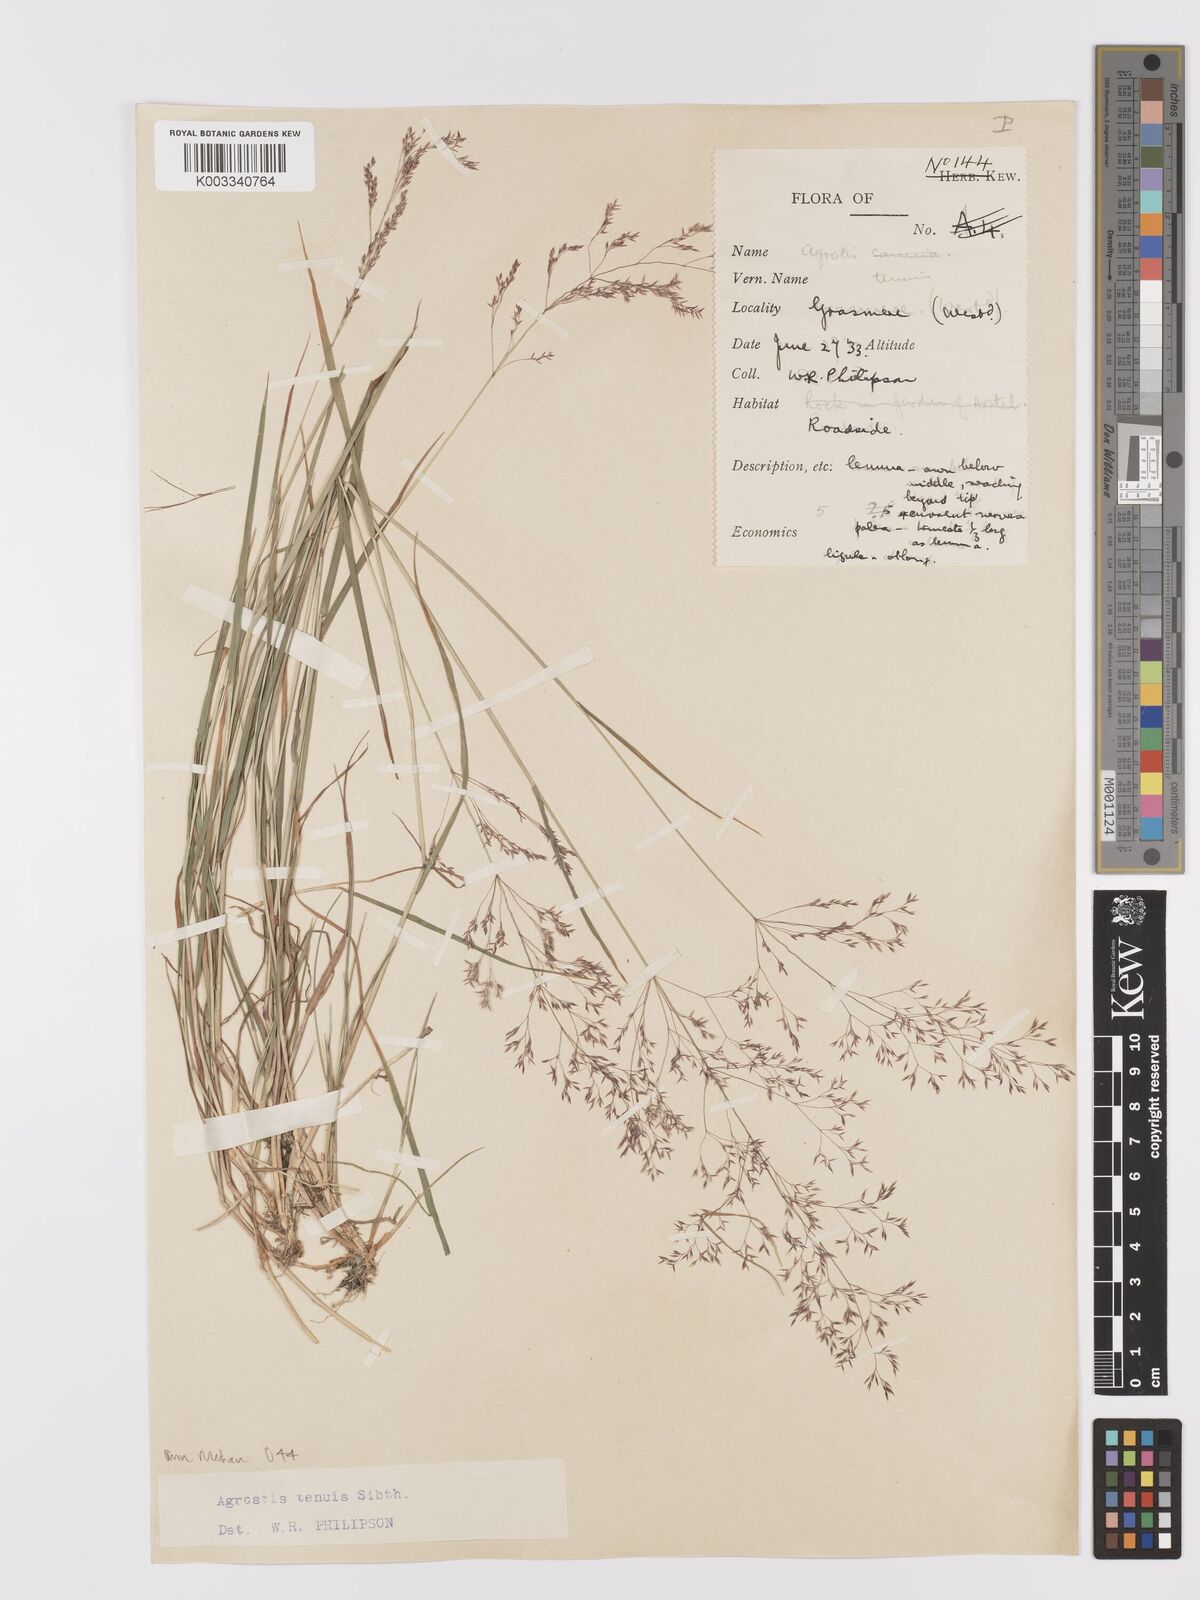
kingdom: Plantae
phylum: Tracheophyta
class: Liliopsida
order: Poales
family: Poaceae
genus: Agrostis
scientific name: Agrostis capillaris
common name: Colonial bentgrass
